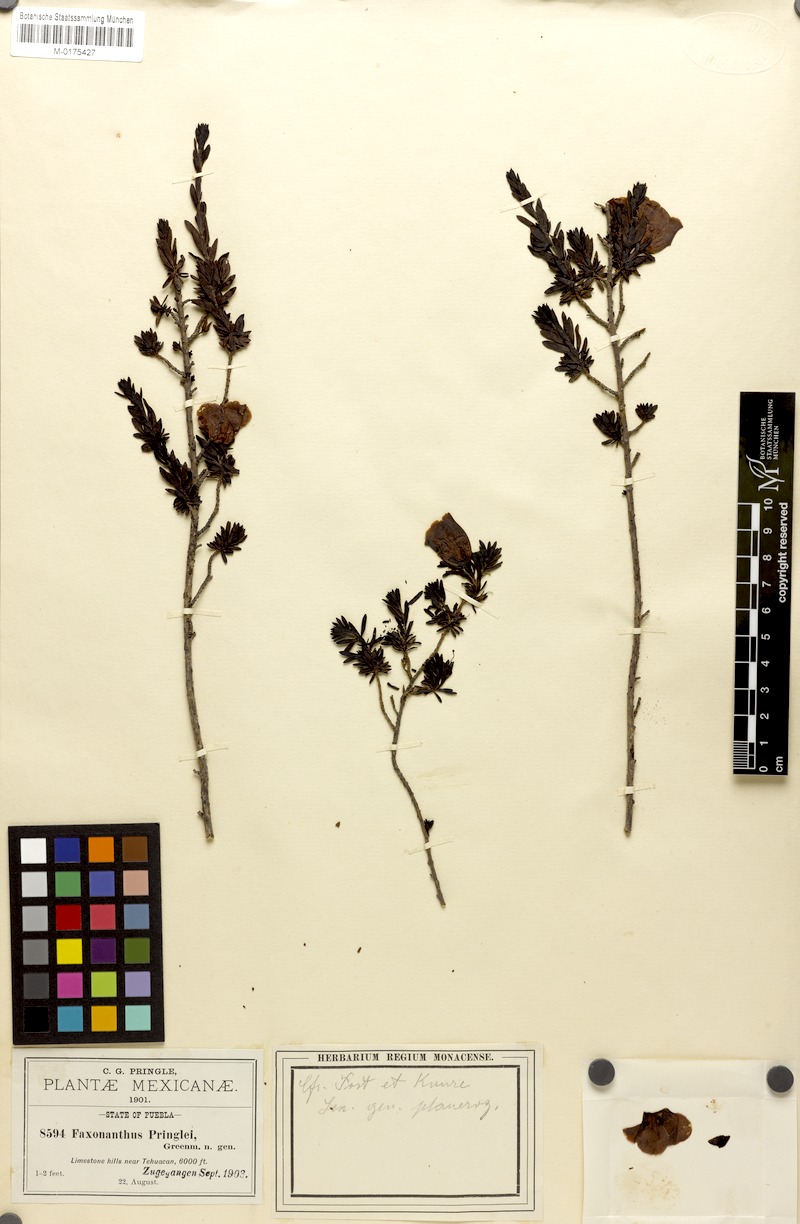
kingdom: Plantae
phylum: Tracheophyta
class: Magnoliopsida
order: Lamiales
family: Scrophulariaceae
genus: Leucophyllum
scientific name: Leucophyllum pringlei
